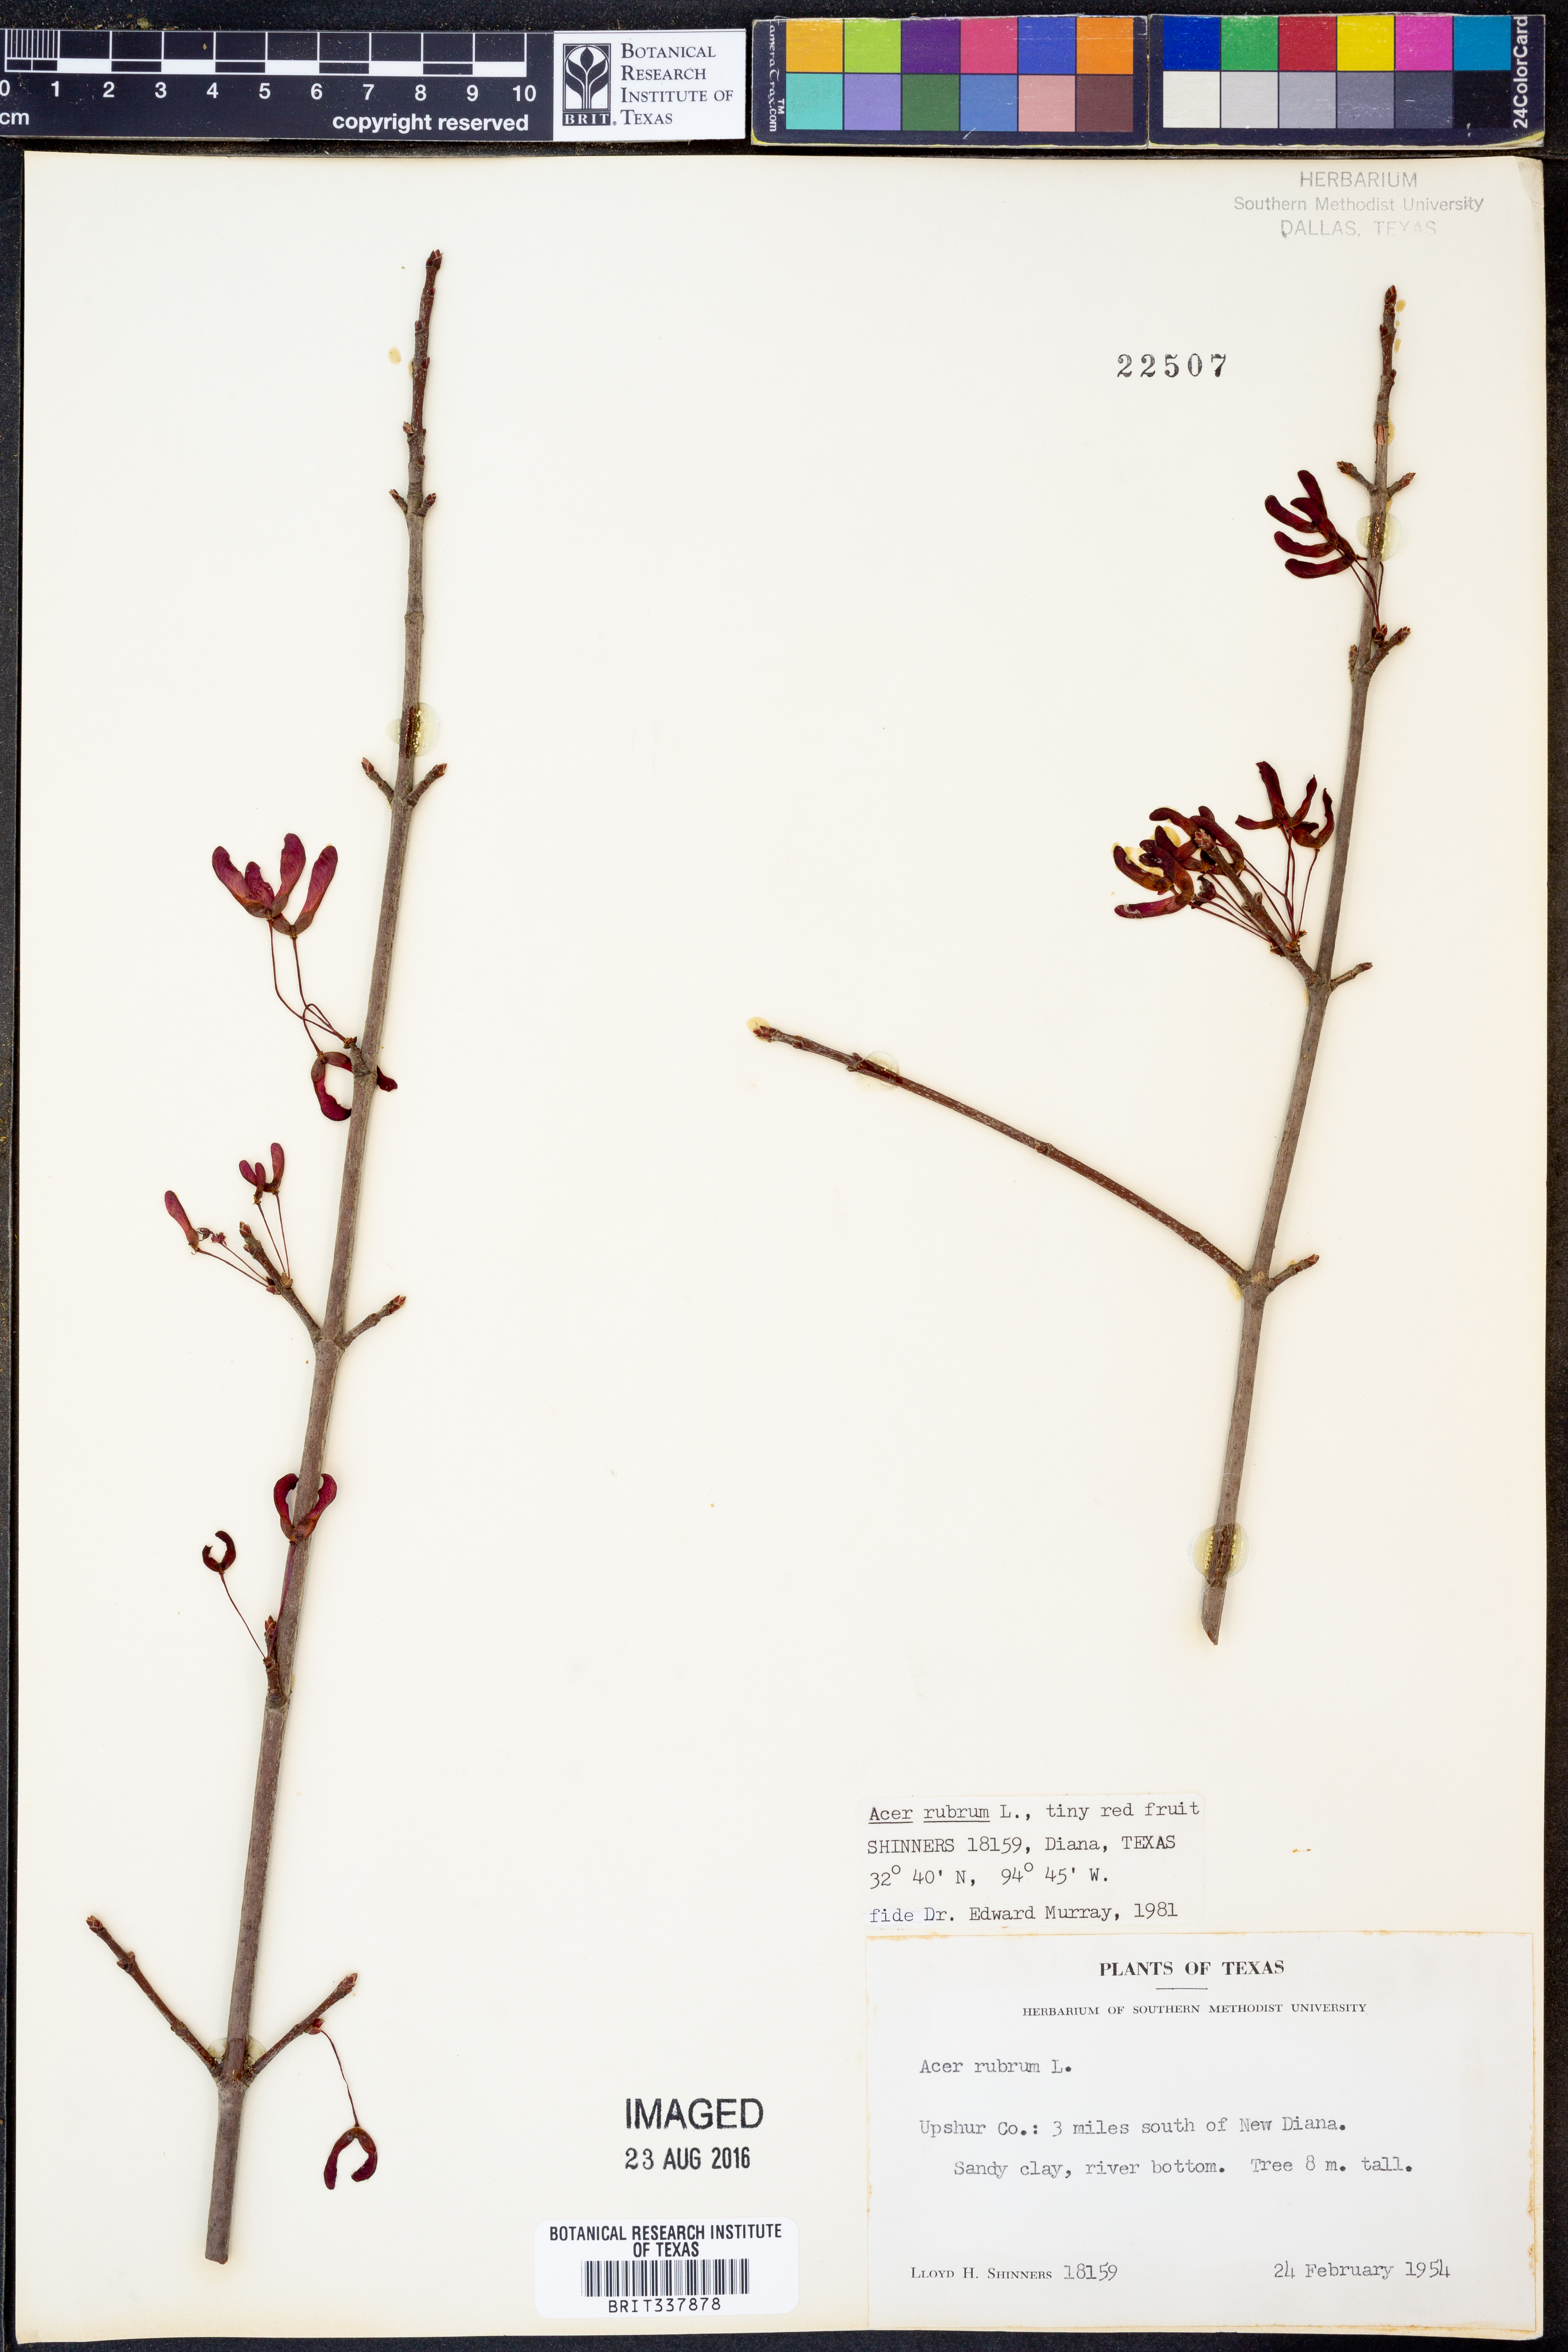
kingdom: Plantae
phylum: Tracheophyta
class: Magnoliopsida
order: Sapindales
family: Sapindaceae
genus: Acer
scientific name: Acer rubrum
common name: Red maple
